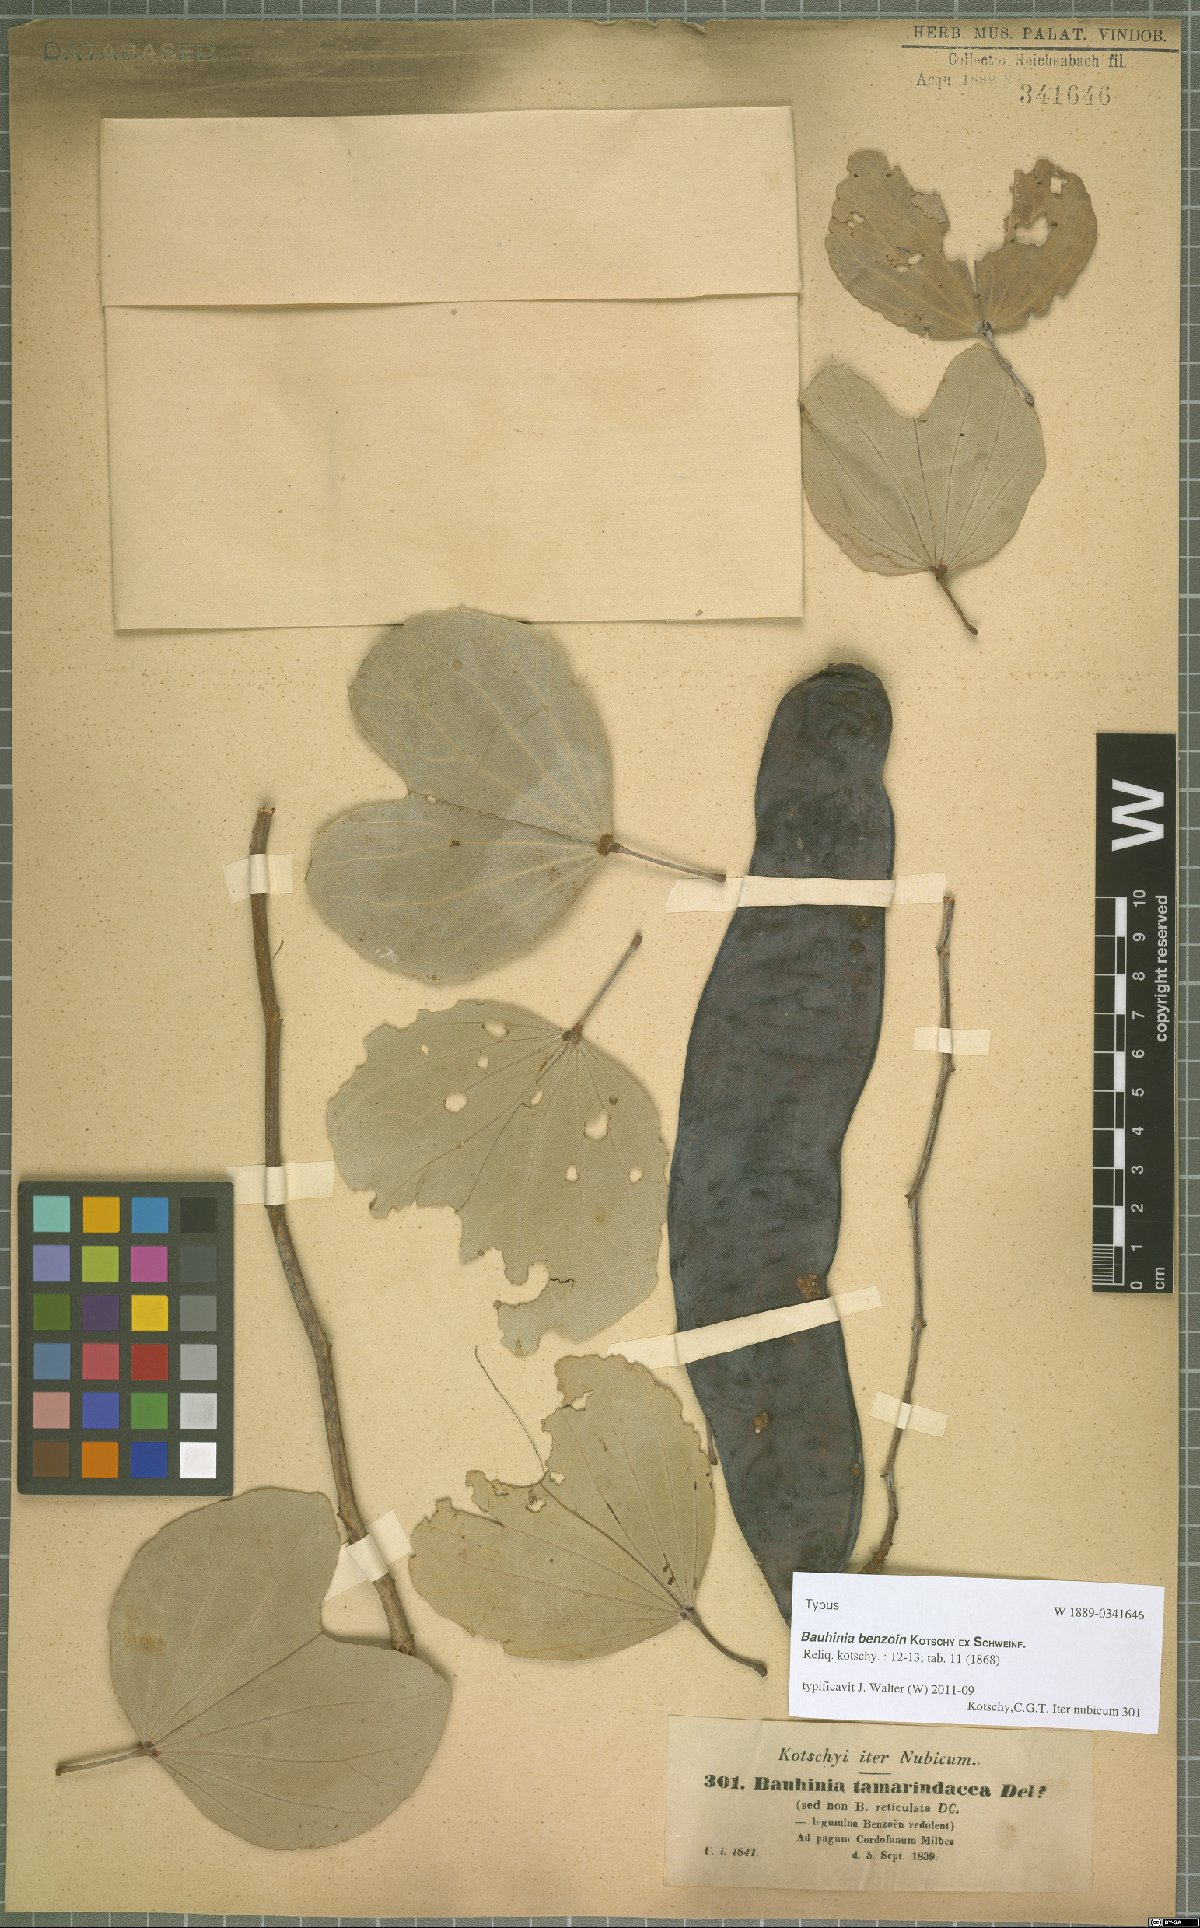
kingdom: Plantae
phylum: Tracheophyta
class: Magnoliopsida
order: Fabales
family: Fabaceae
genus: Piliostigma
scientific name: Piliostigma reticulatum
